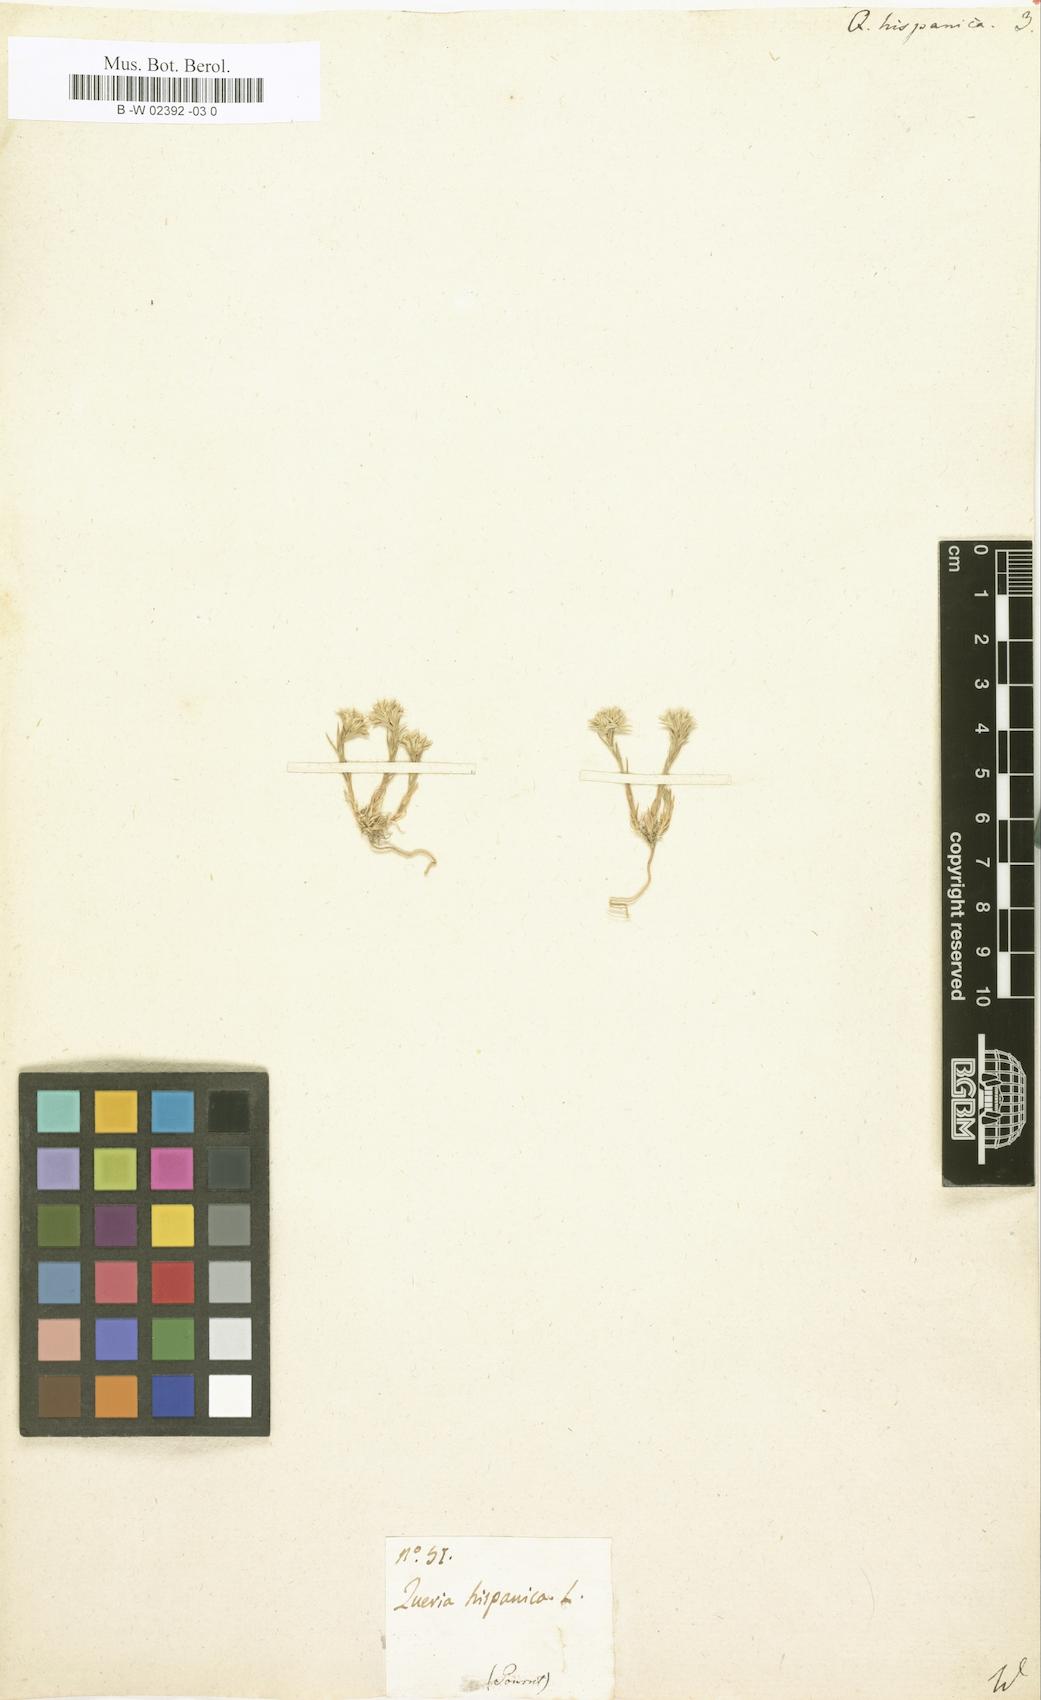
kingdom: Plantae
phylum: Tracheophyta
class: Magnoliopsida
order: Caryophyllales
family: Caryophyllaceae
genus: Minuartia
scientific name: Minuartia hamata
